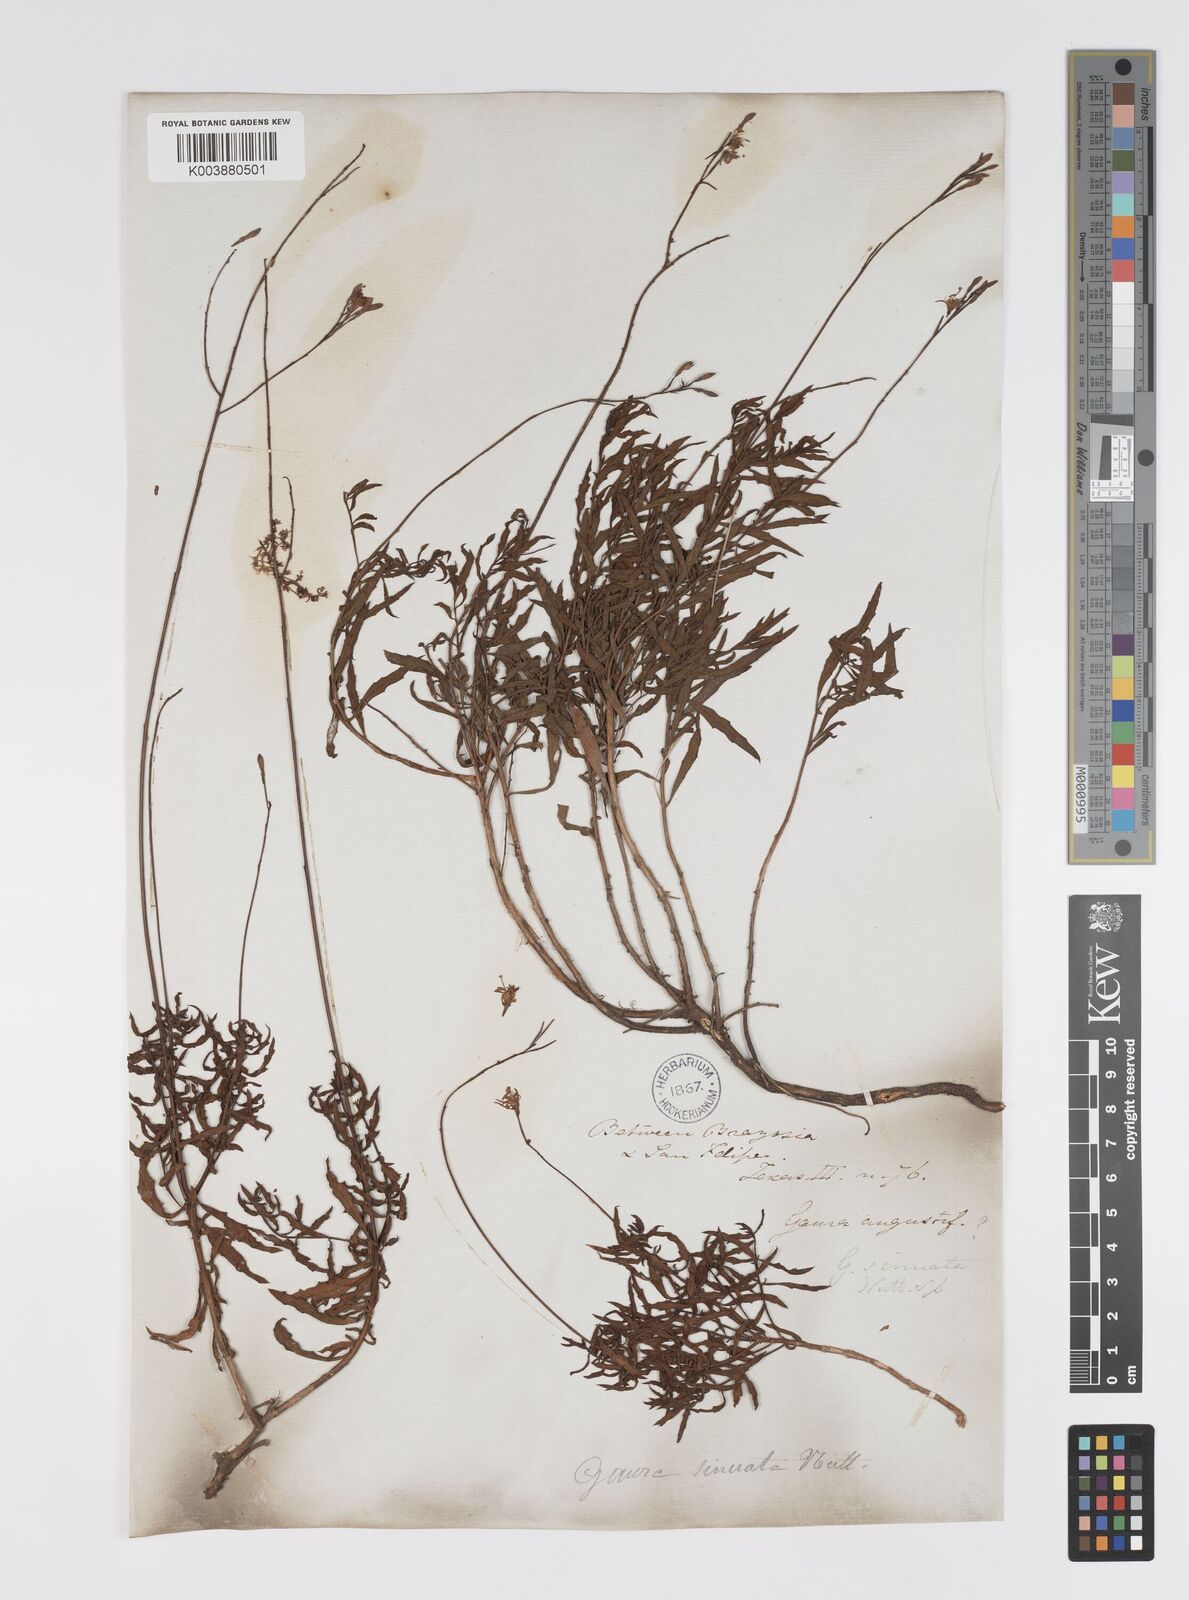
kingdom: Plantae
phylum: Tracheophyta
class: Magnoliopsida
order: Myrtales
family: Onagraceae
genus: Oenothera
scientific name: Oenothera sinuosa
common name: Wavyleaf beeblossom
